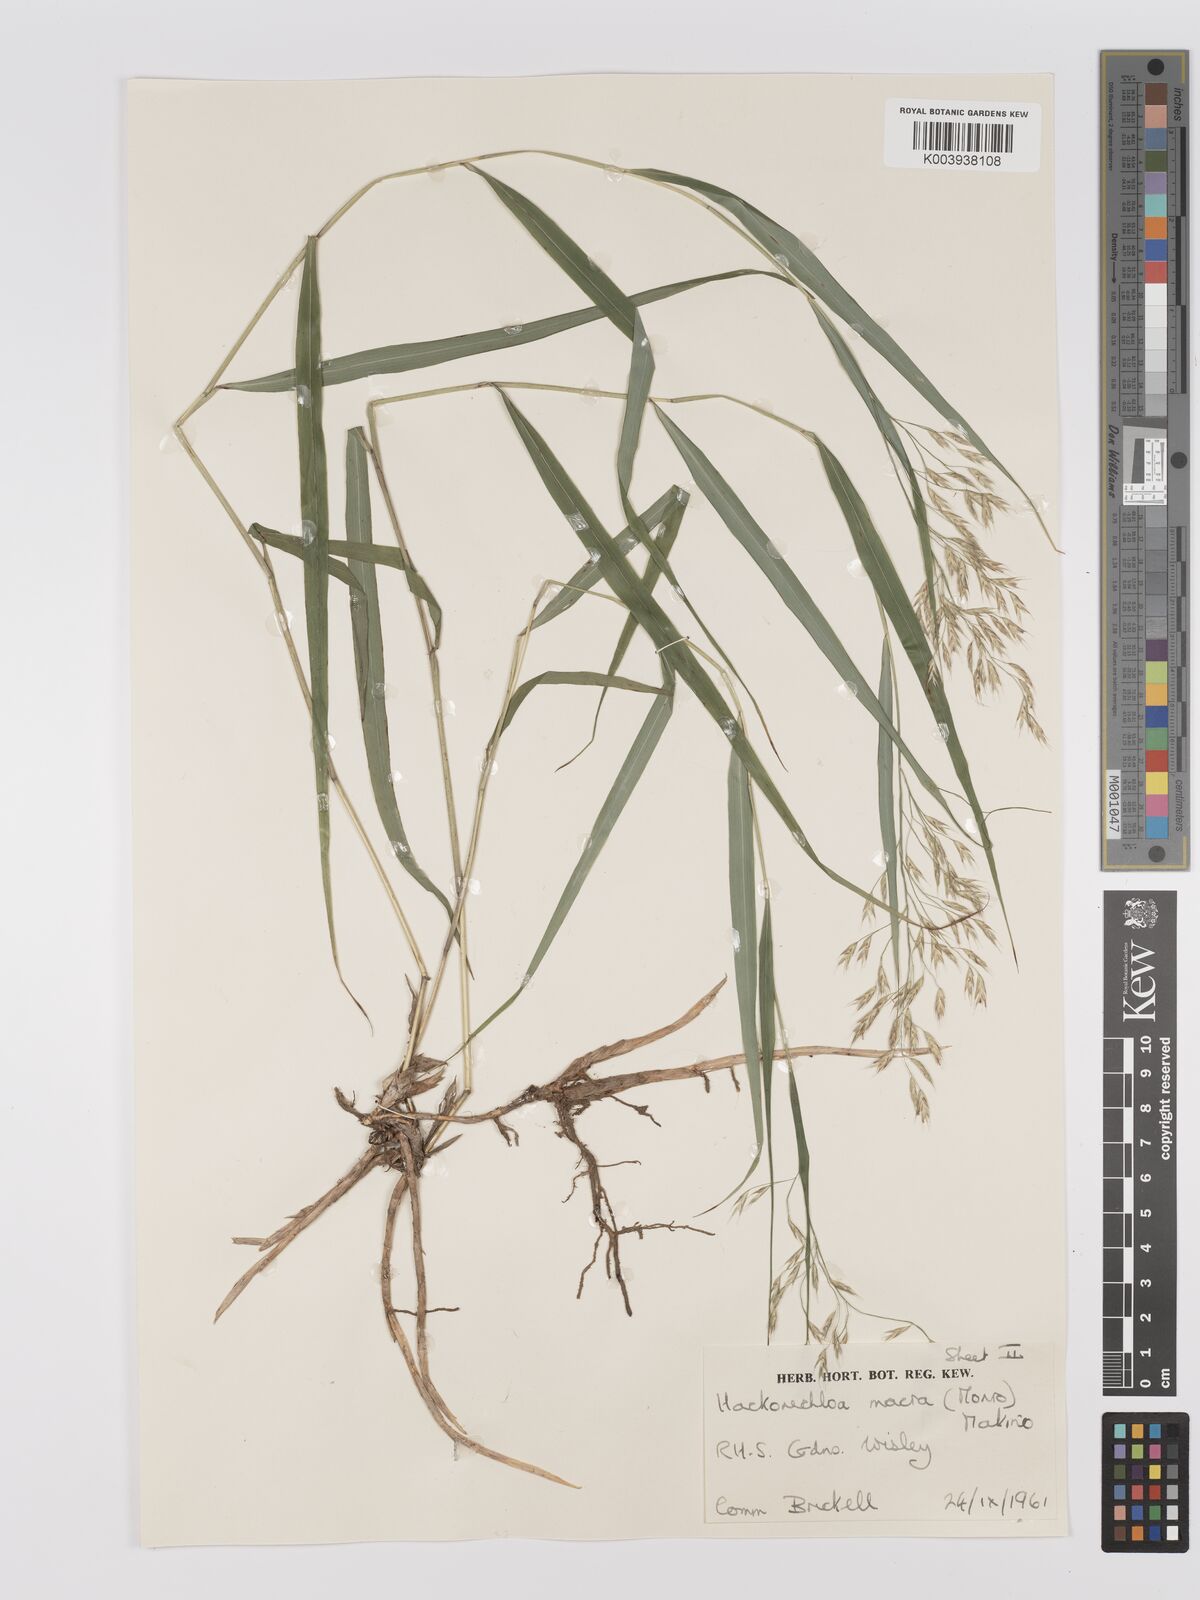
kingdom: Plantae
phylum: Tracheophyta
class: Liliopsida
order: Poales
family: Poaceae
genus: Hakonechloa
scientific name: Hakonechloa macra
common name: Hakone grass
